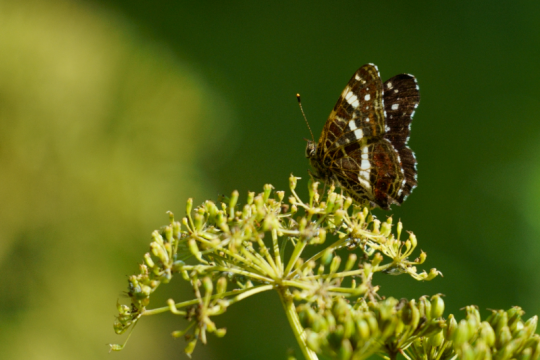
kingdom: Animalia
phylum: Arthropoda
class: Insecta
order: Lepidoptera
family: Nymphalidae
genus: Araschnia
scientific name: Araschnia levana
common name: Map
